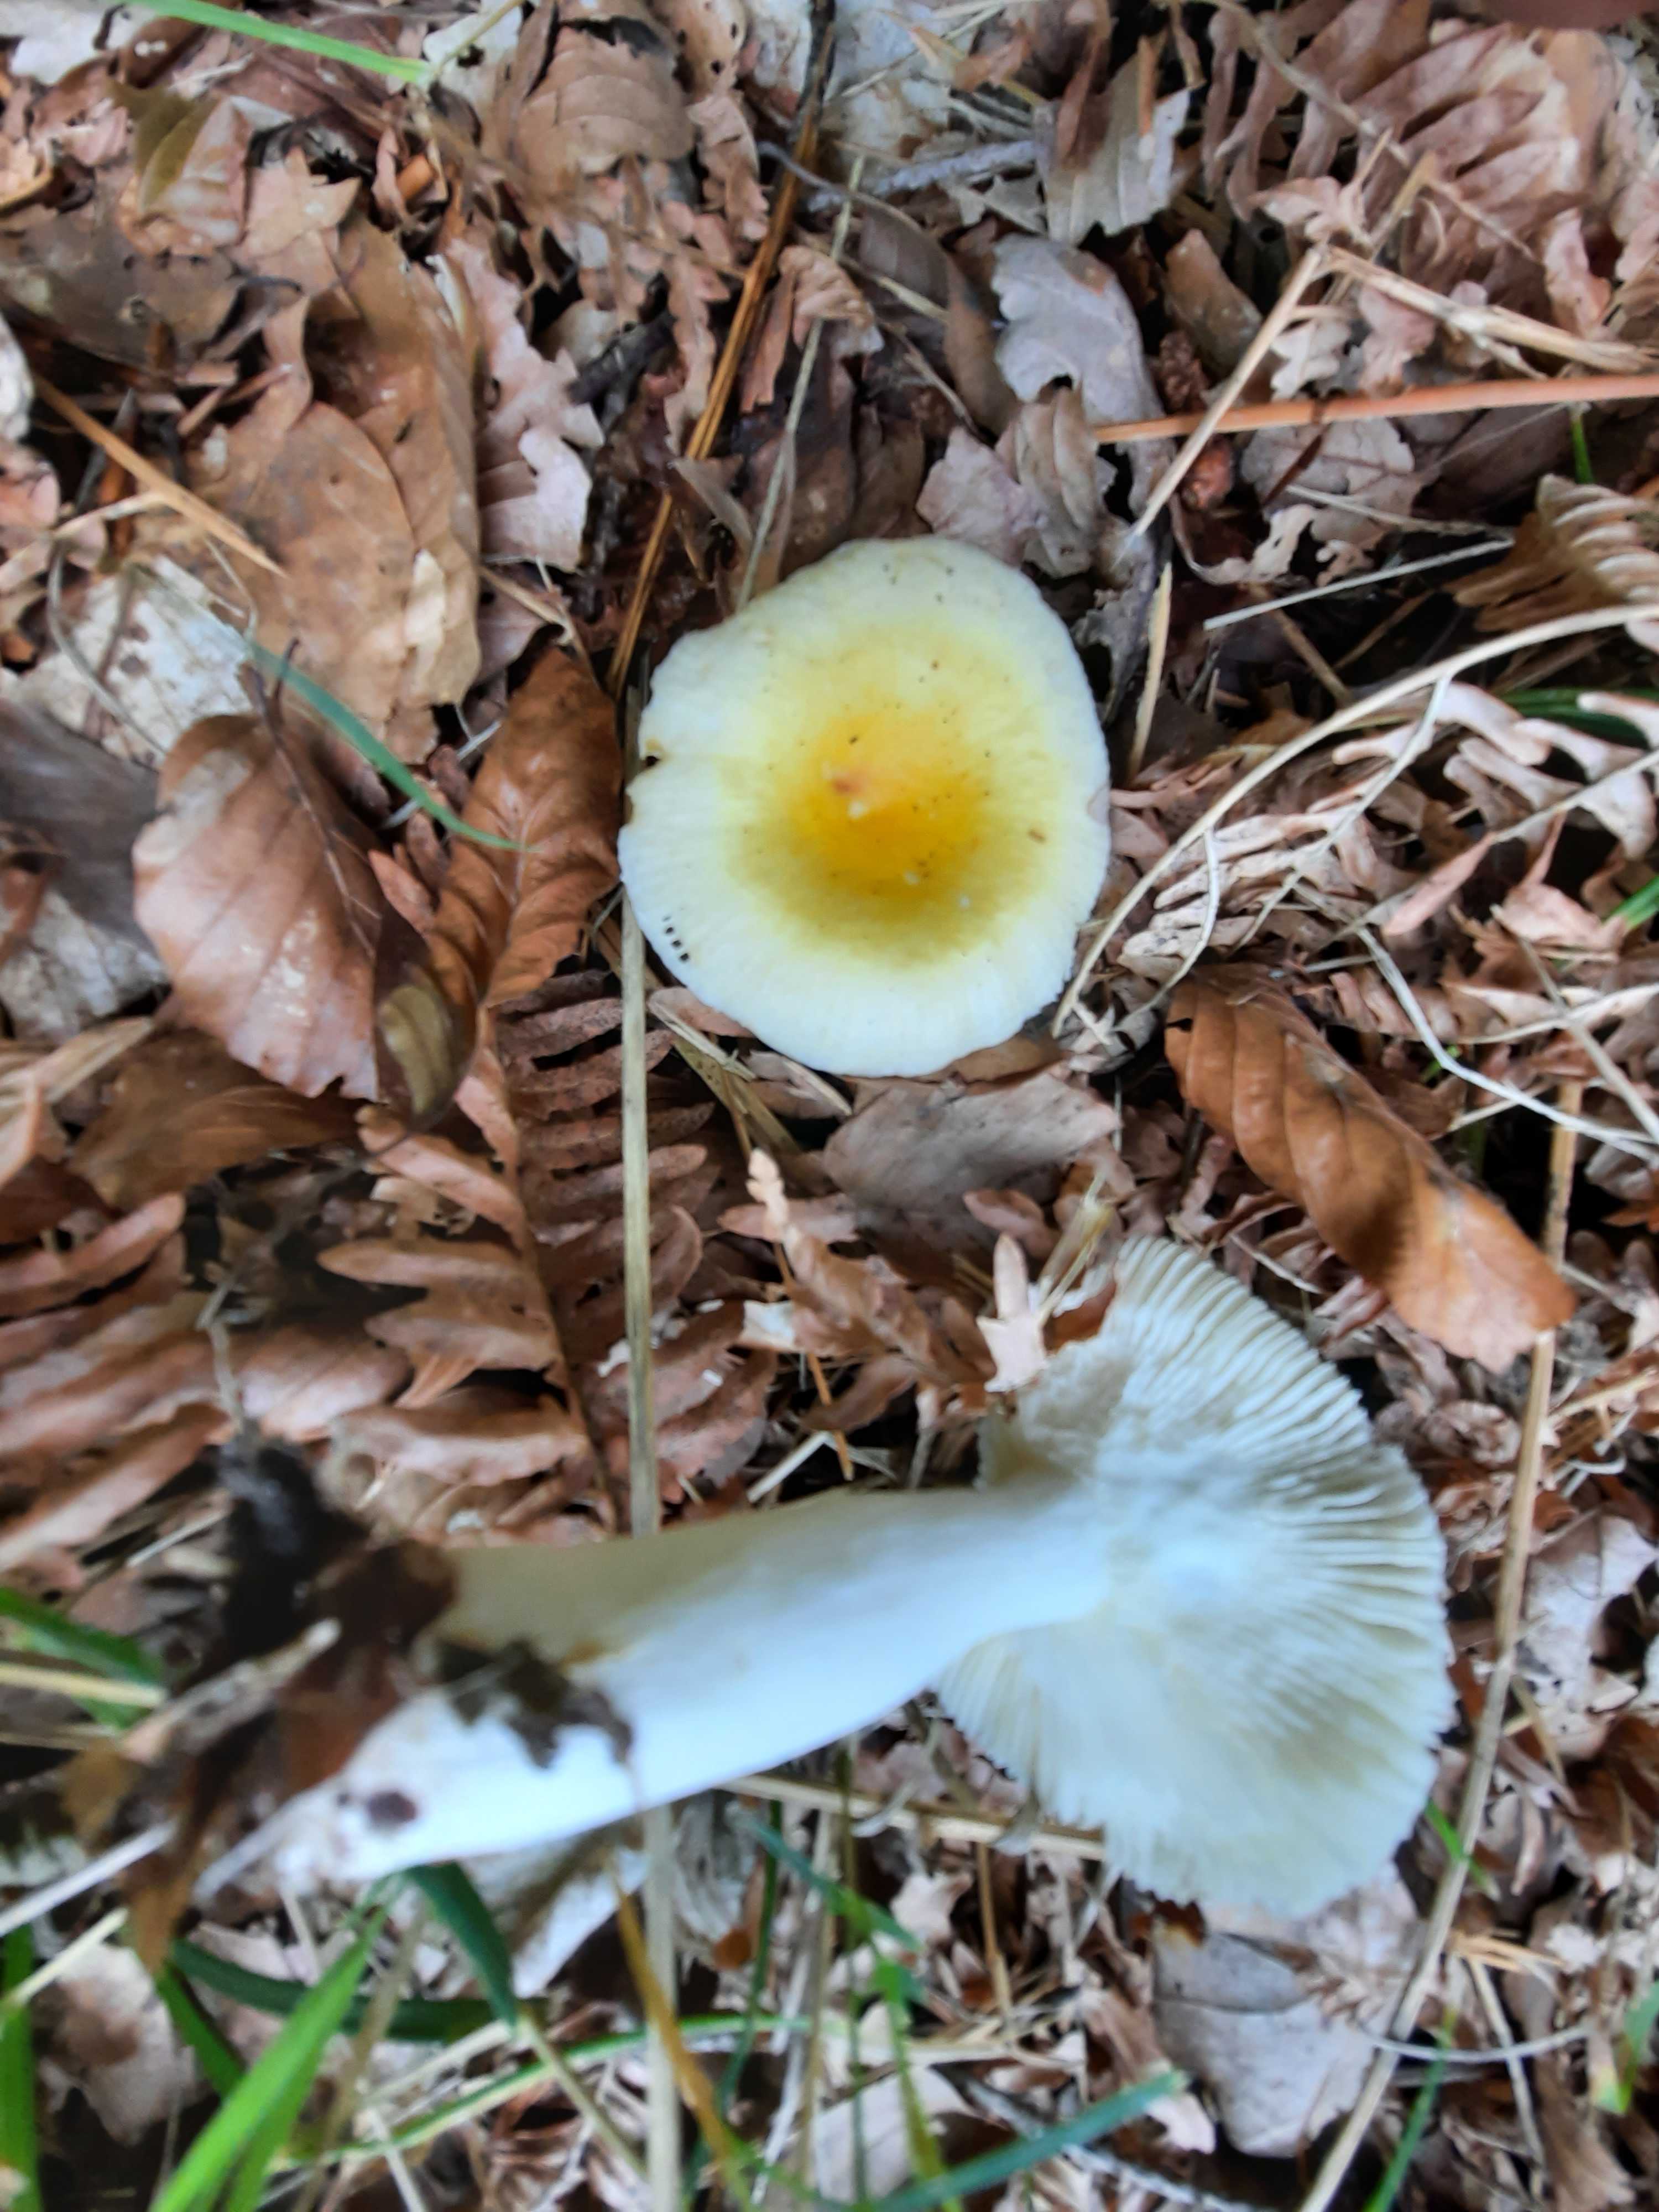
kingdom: Fungi
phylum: Basidiomycota
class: Agaricomycetes
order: Russulales
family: Russulaceae
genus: Russula
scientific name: Russula solaris
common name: sol-skørhat
